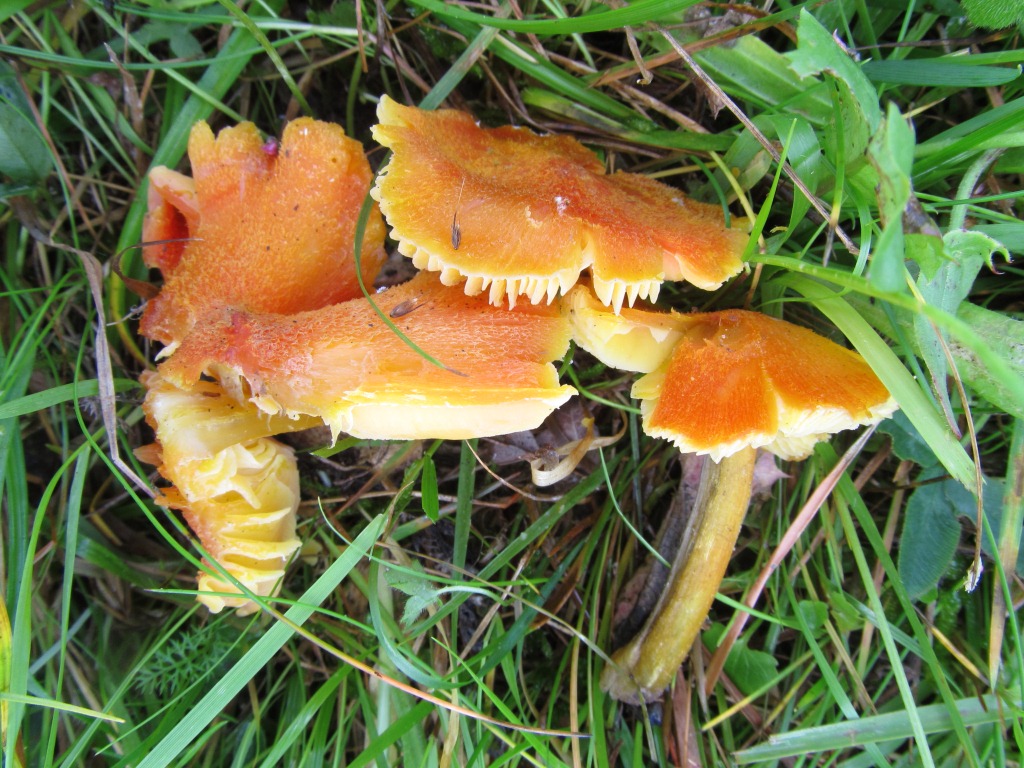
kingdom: Fungi
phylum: Basidiomycota
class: Agaricomycetes
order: Agaricales
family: Hygrophoraceae
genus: Hygrocybe
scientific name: Hygrocybe intermedia
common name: trævlet vokshat
